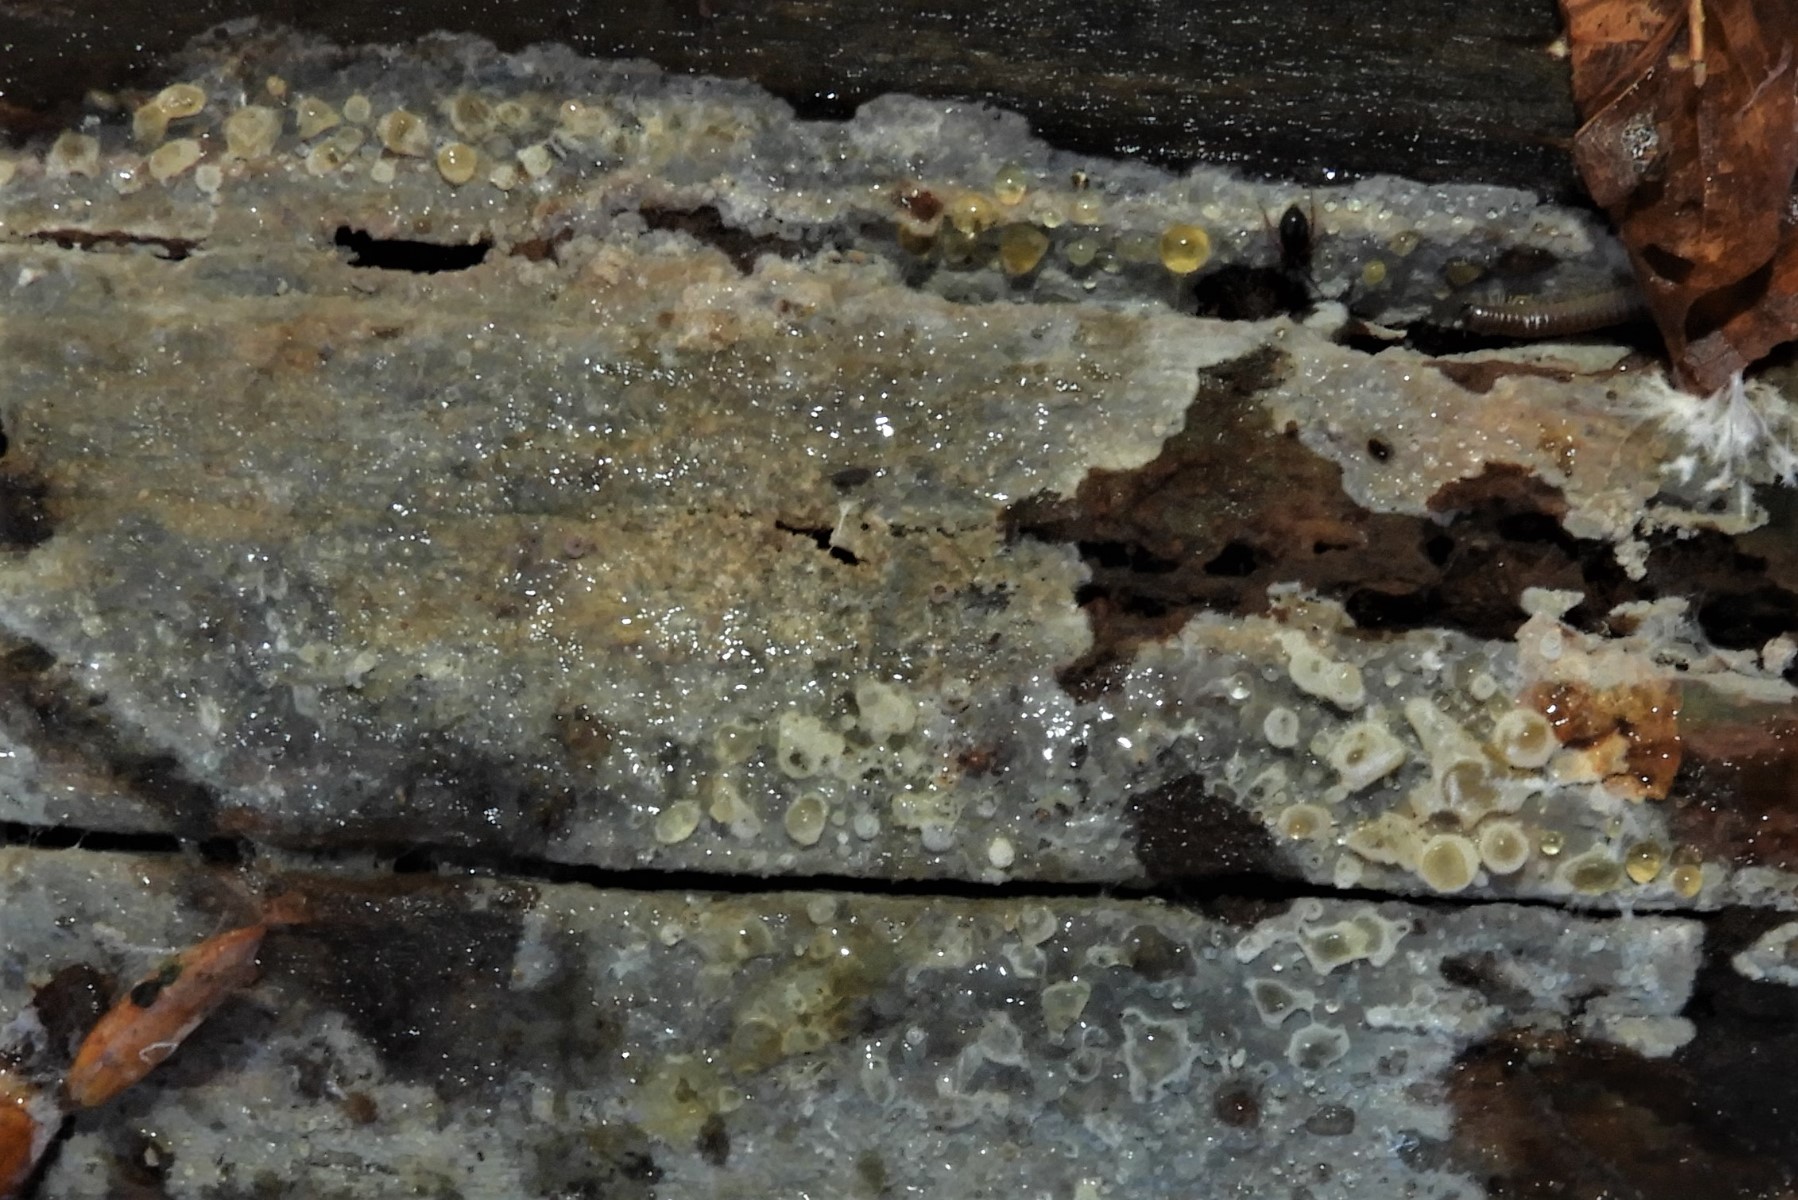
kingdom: Fungi
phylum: Basidiomycota
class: Agaricomycetes
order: Corticiales
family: Corticiaceae
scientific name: Corticiaceae
